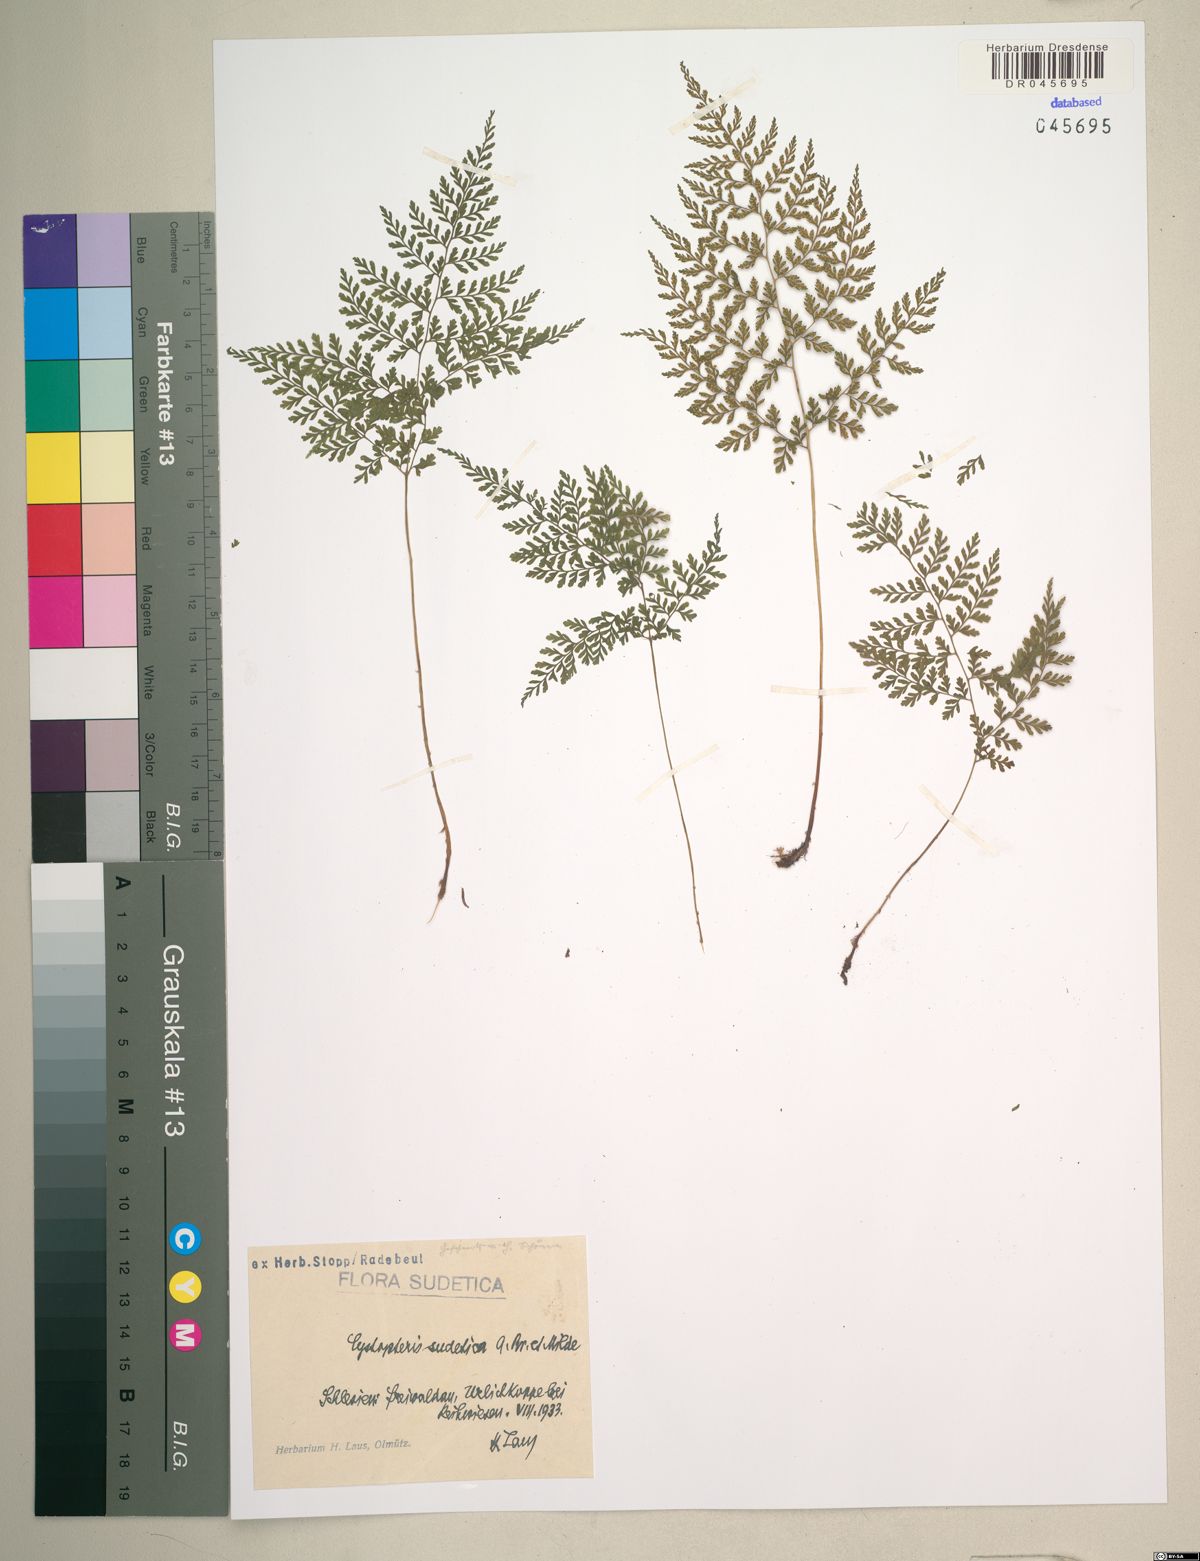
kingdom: Plantae
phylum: Tracheophyta
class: Polypodiopsida
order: Polypodiales
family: Cystopteridaceae
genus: Cystopteris
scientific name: Cystopteris sudetica
